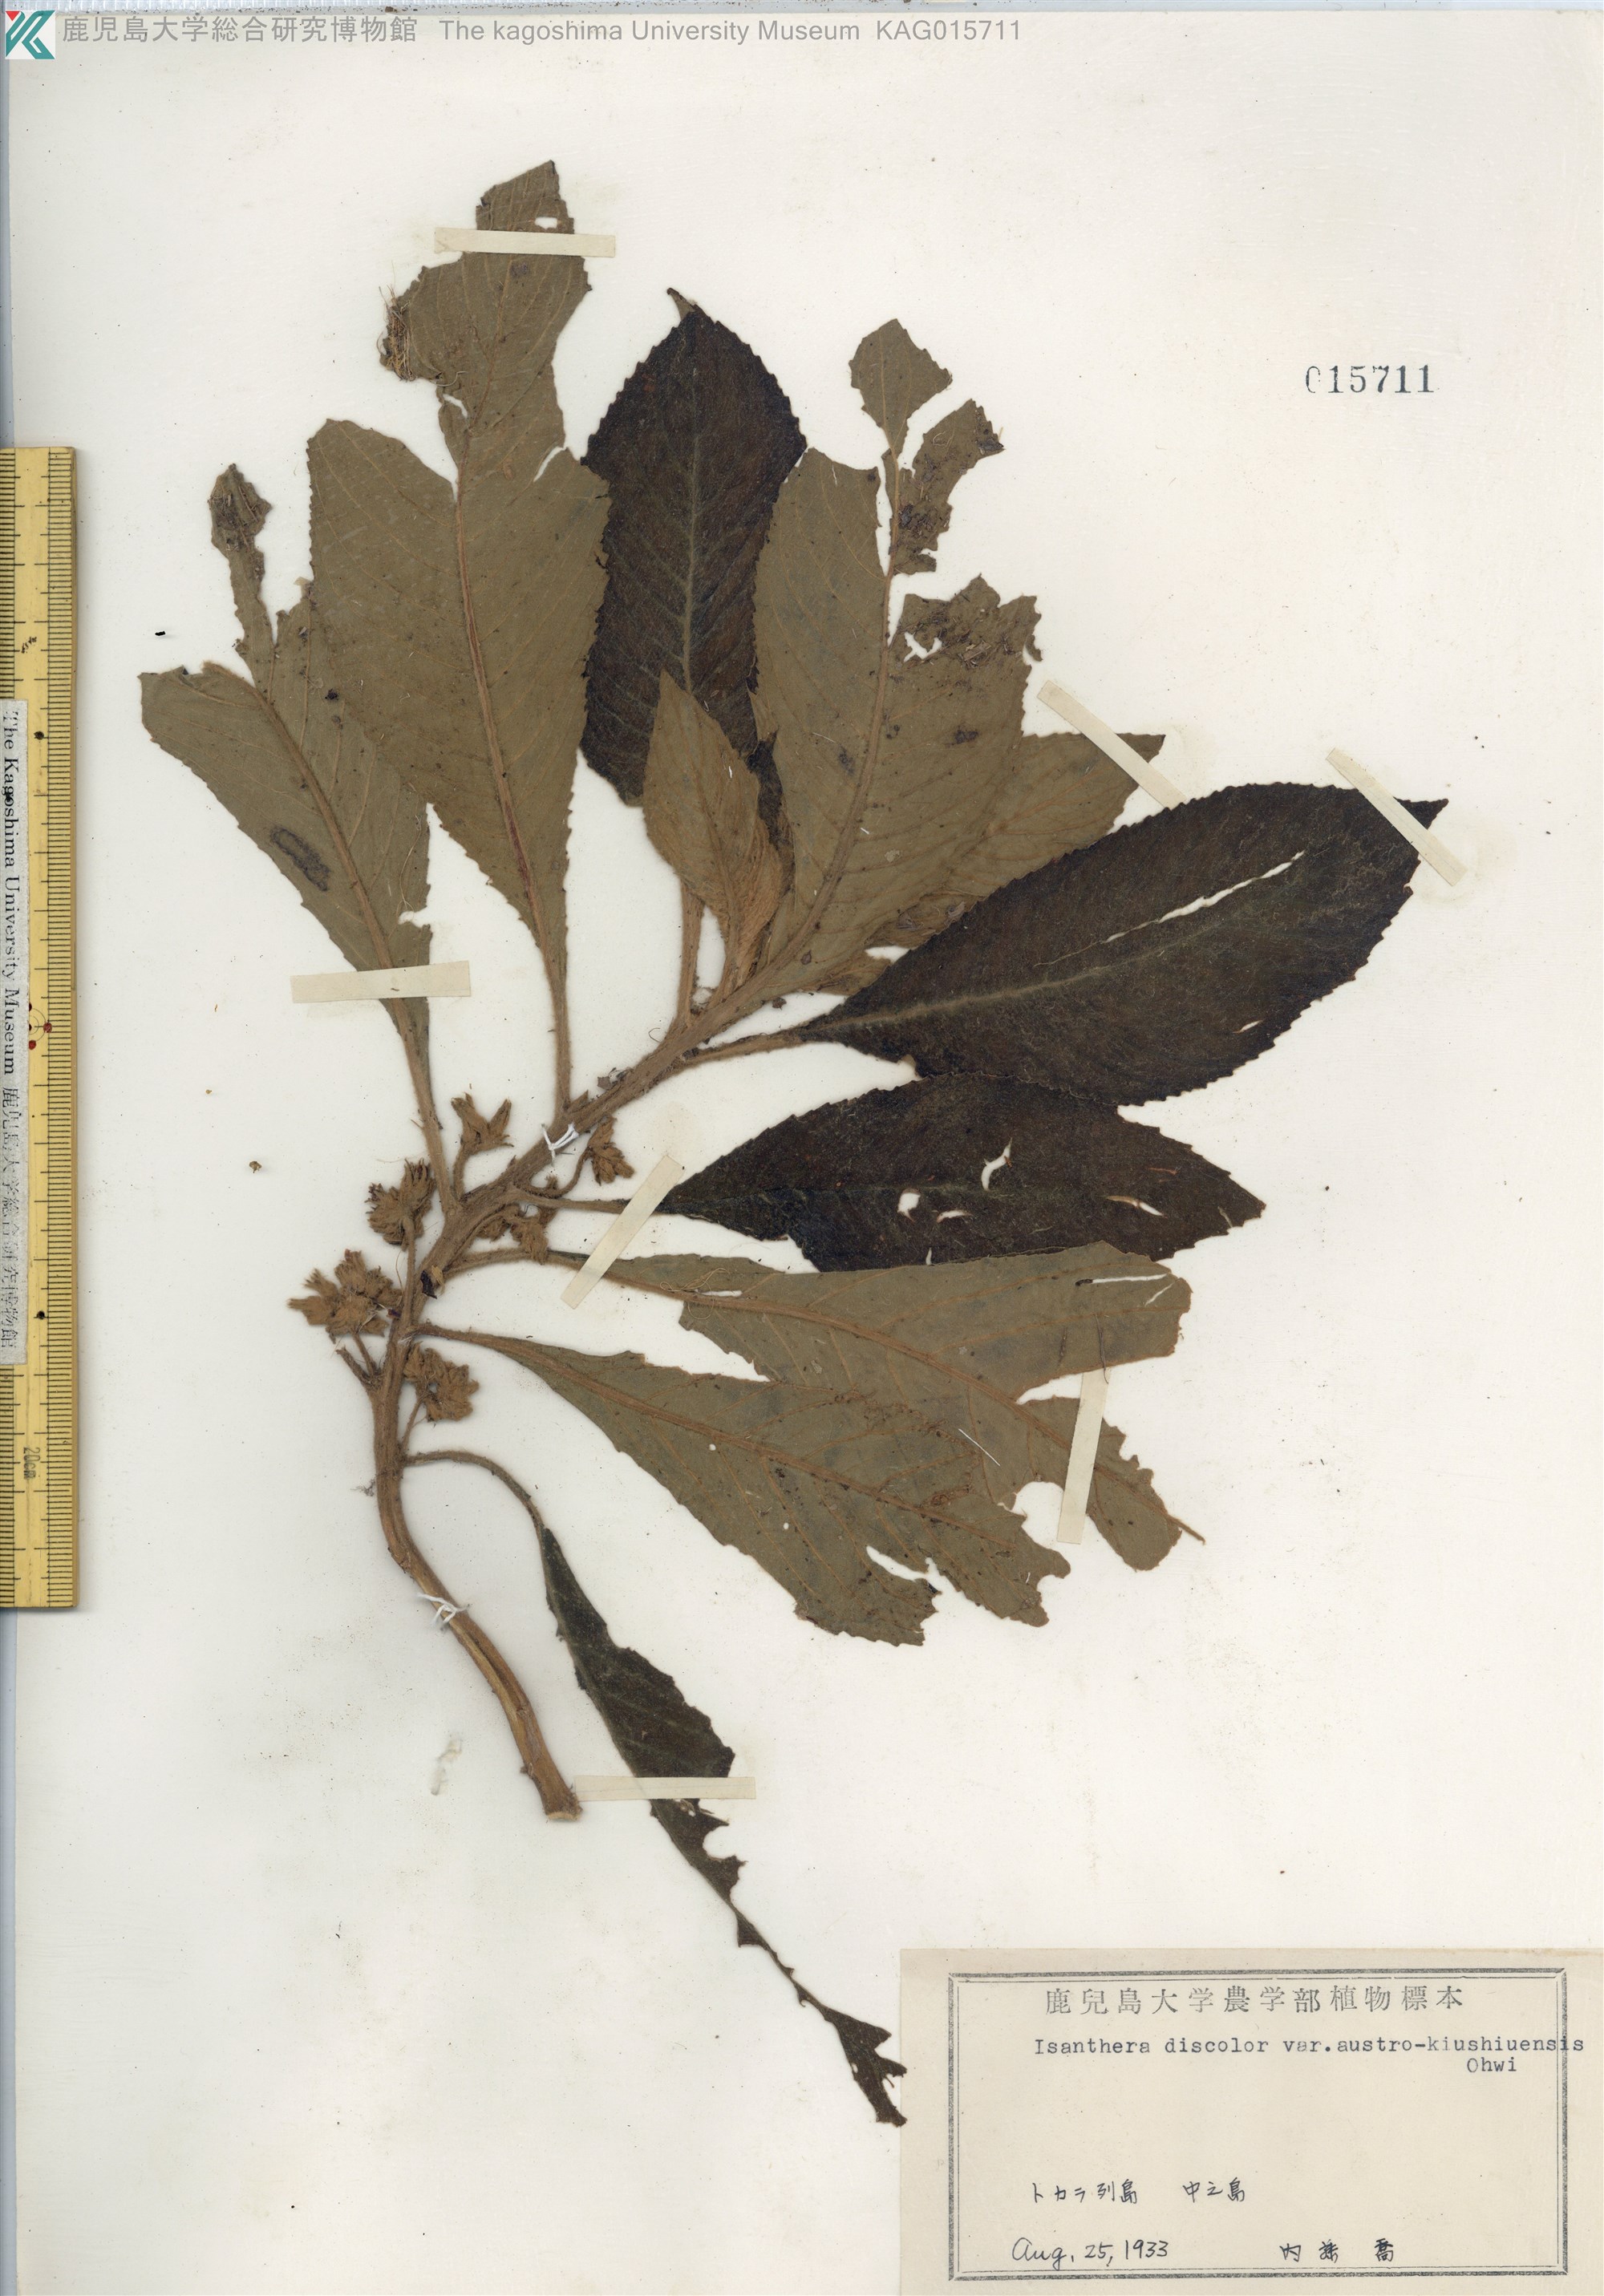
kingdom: Plantae
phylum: Tracheophyta
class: Magnoliopsida
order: Lamiales
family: Gesneriaceae
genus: Rhynchotechum
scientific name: Rhynchotechum discolor
